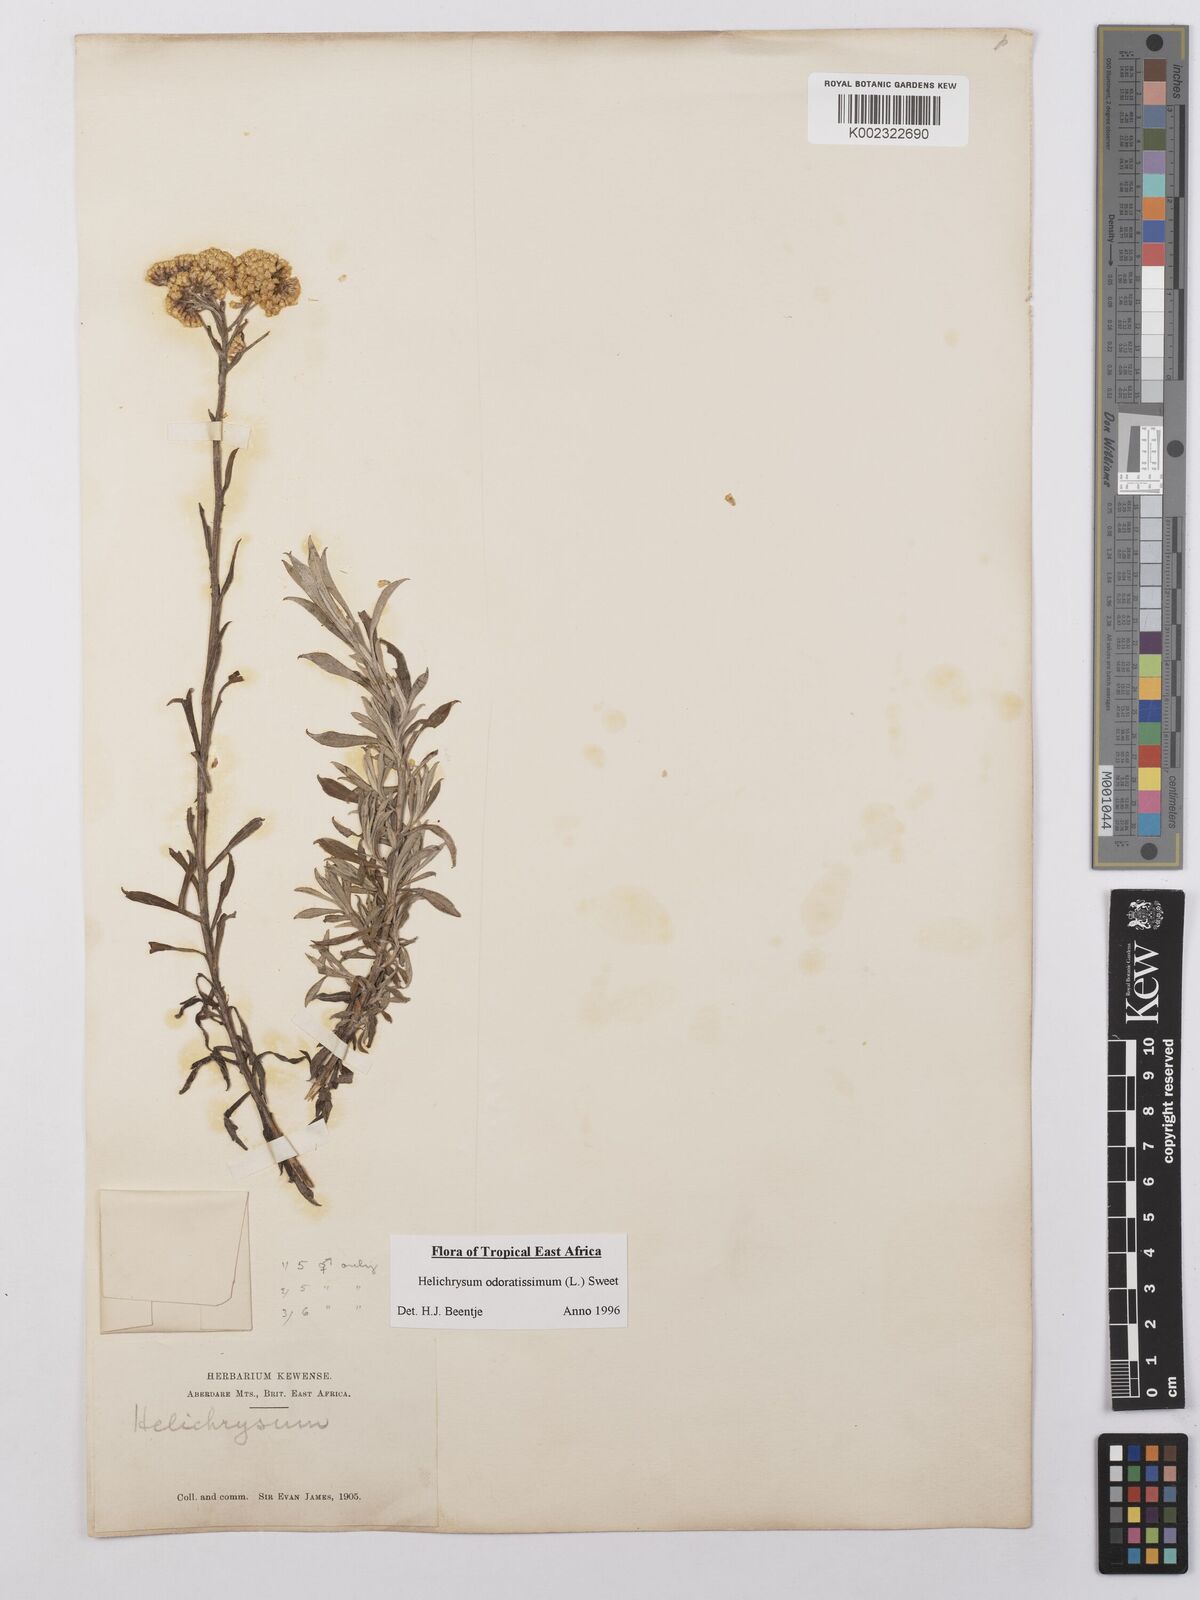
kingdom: Plantae
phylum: Tracheophyta
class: Magnoliopsida
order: Asterales
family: Asteraceae
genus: Helichrysum
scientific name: Helichrysum odoratissimum
